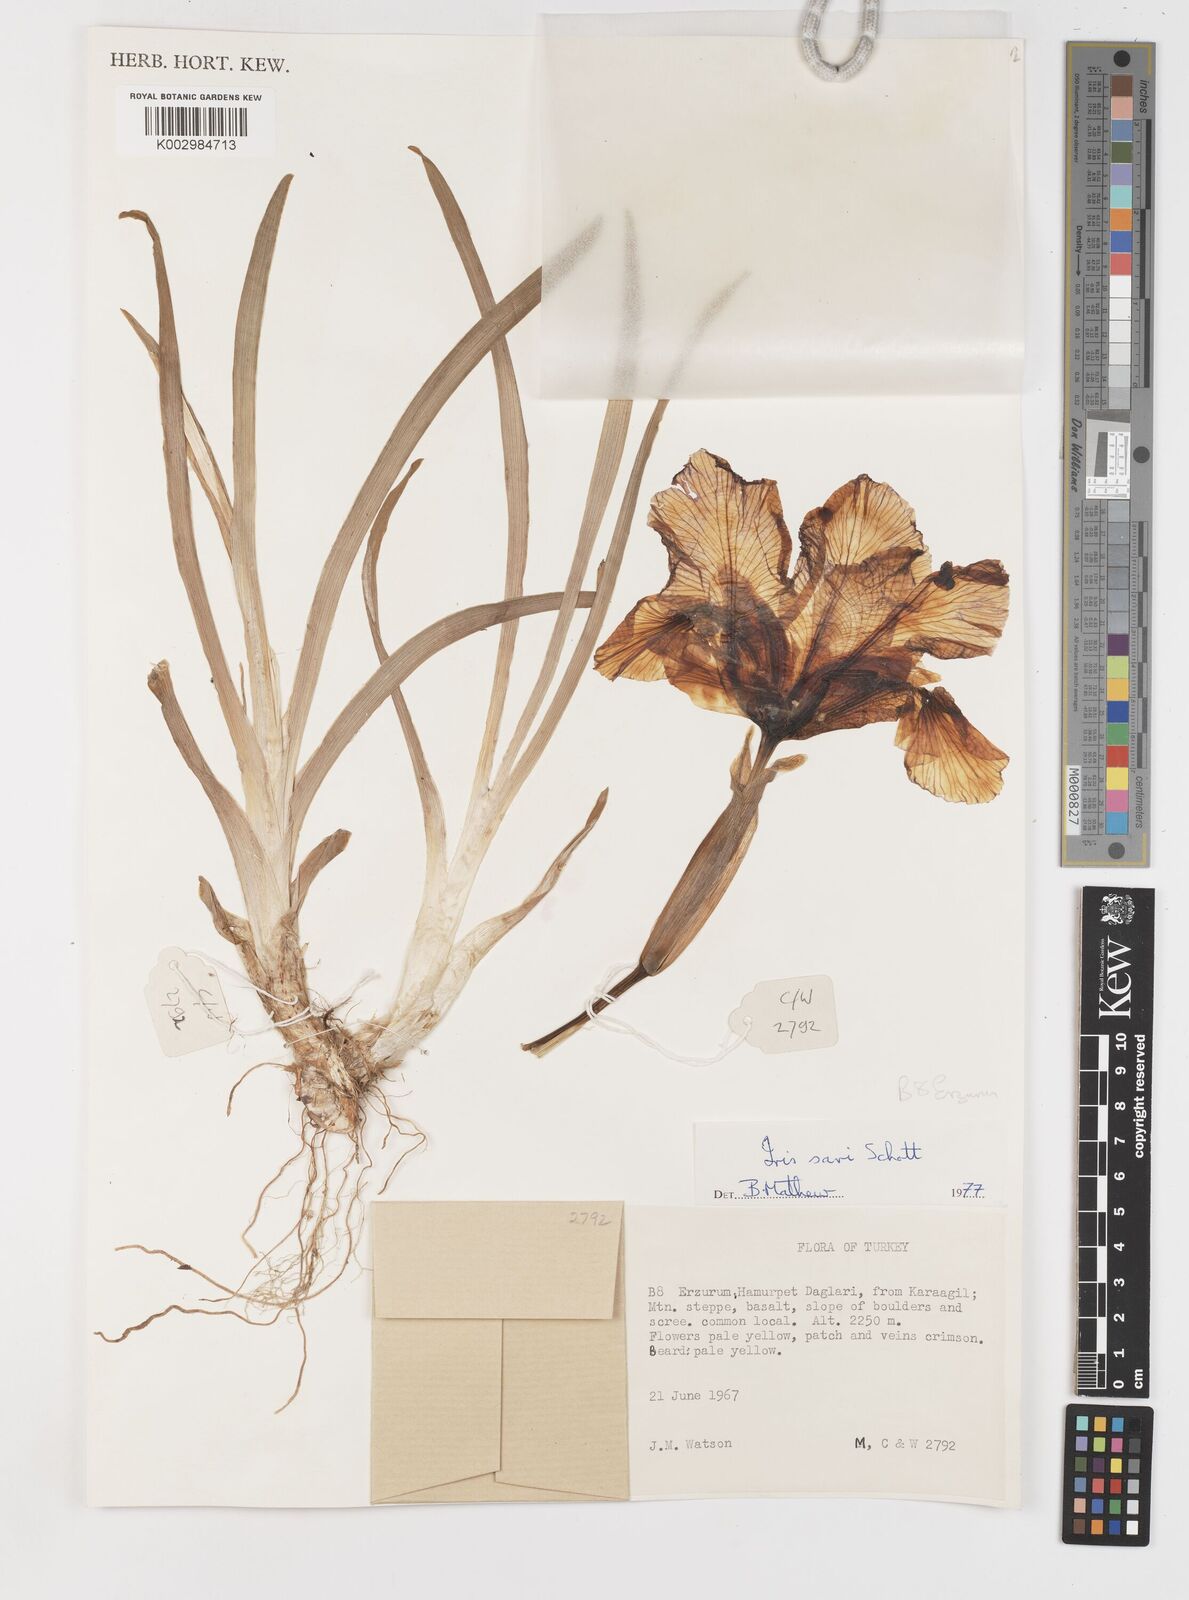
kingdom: Plantae
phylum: Tracheophyta
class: Liliopsida
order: Asparagales
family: Iridaceae
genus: Iris
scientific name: Iris sari
